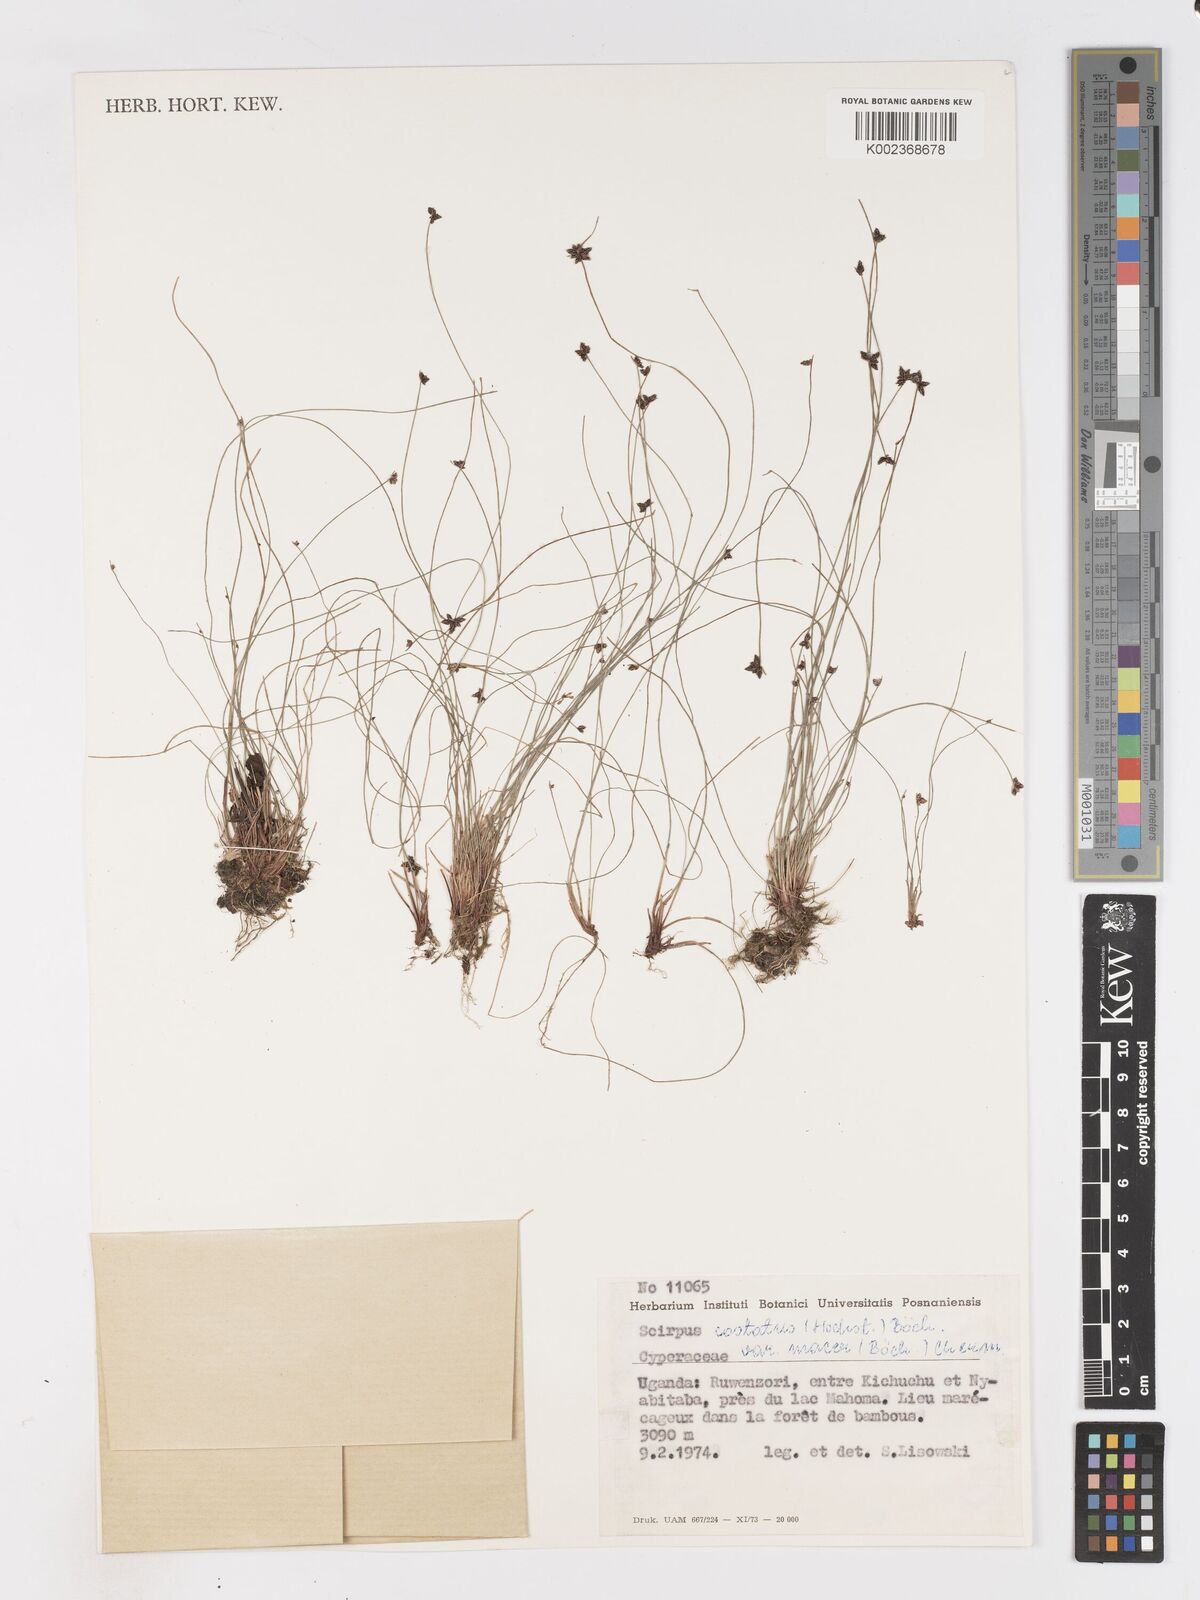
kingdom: Plantae
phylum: Tracheophyta
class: Liliopsida
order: Poales
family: Cyperaceae
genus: Isolepis
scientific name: Isolepis costata
